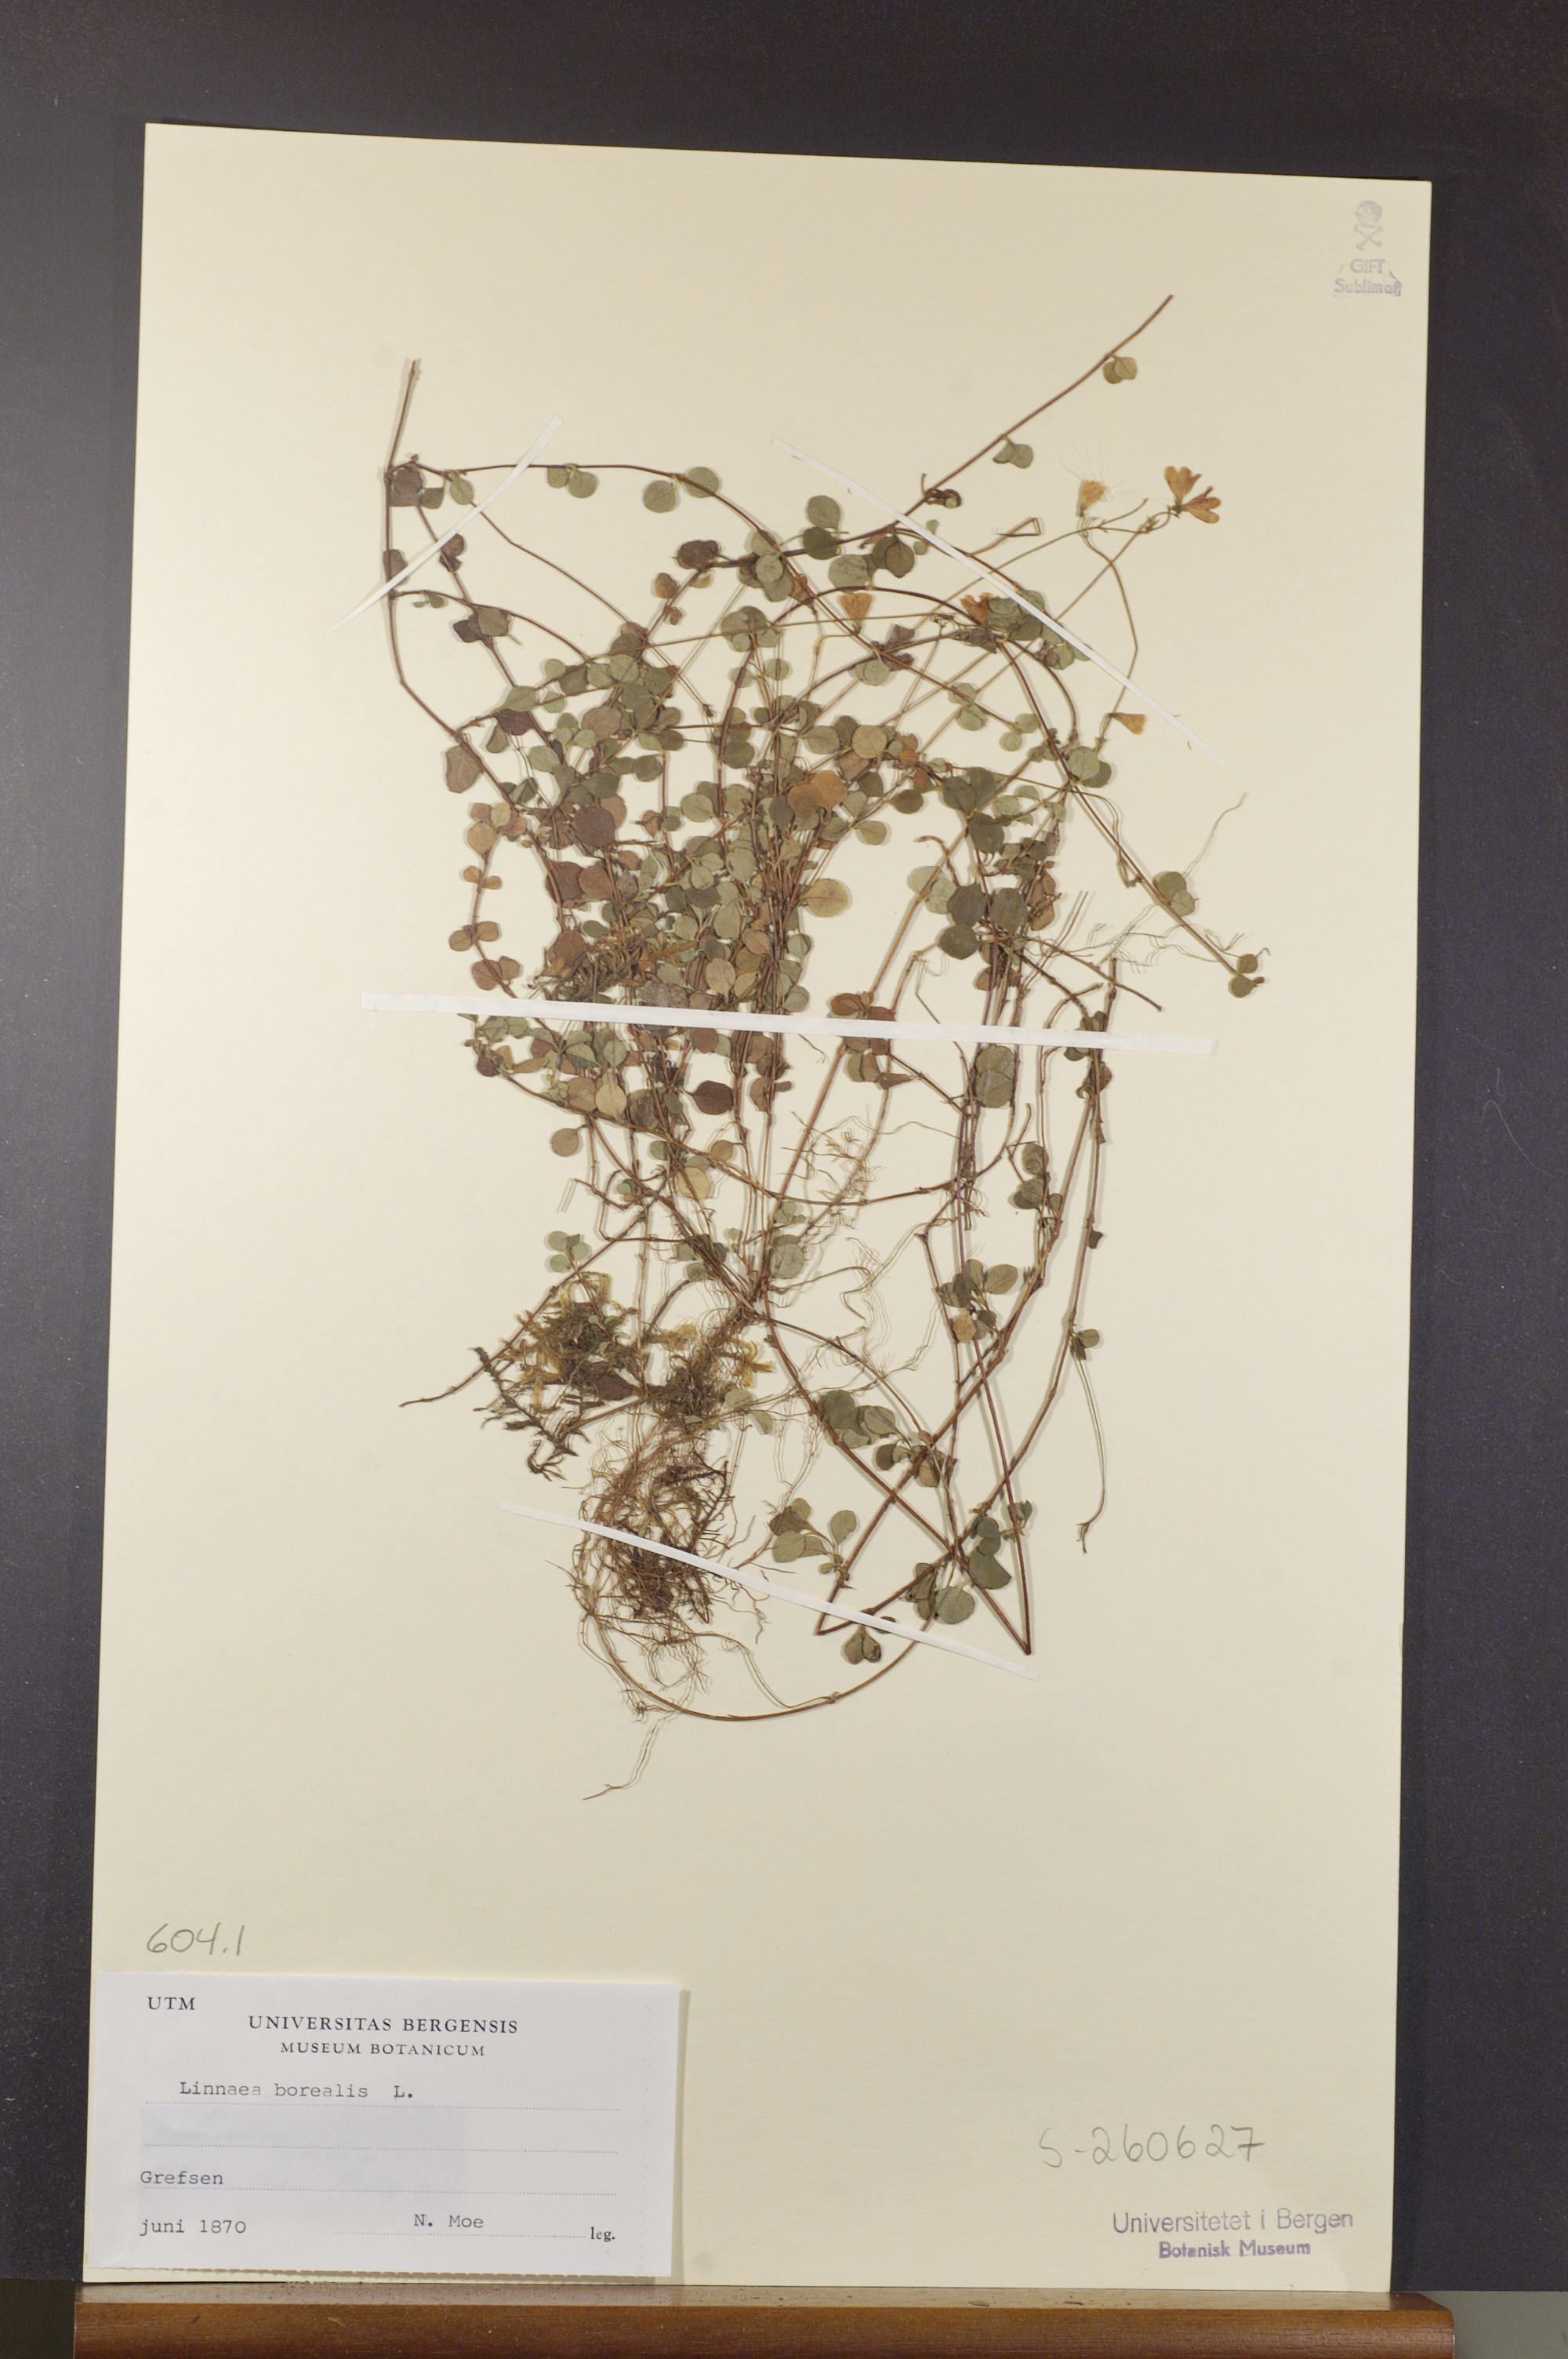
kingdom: Plantae
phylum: Tracheophyta
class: Magnoliopsida
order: Dipsacales
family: Caprifoliaceae
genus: Linnaea
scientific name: Linnaea borealis
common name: Twinflower
